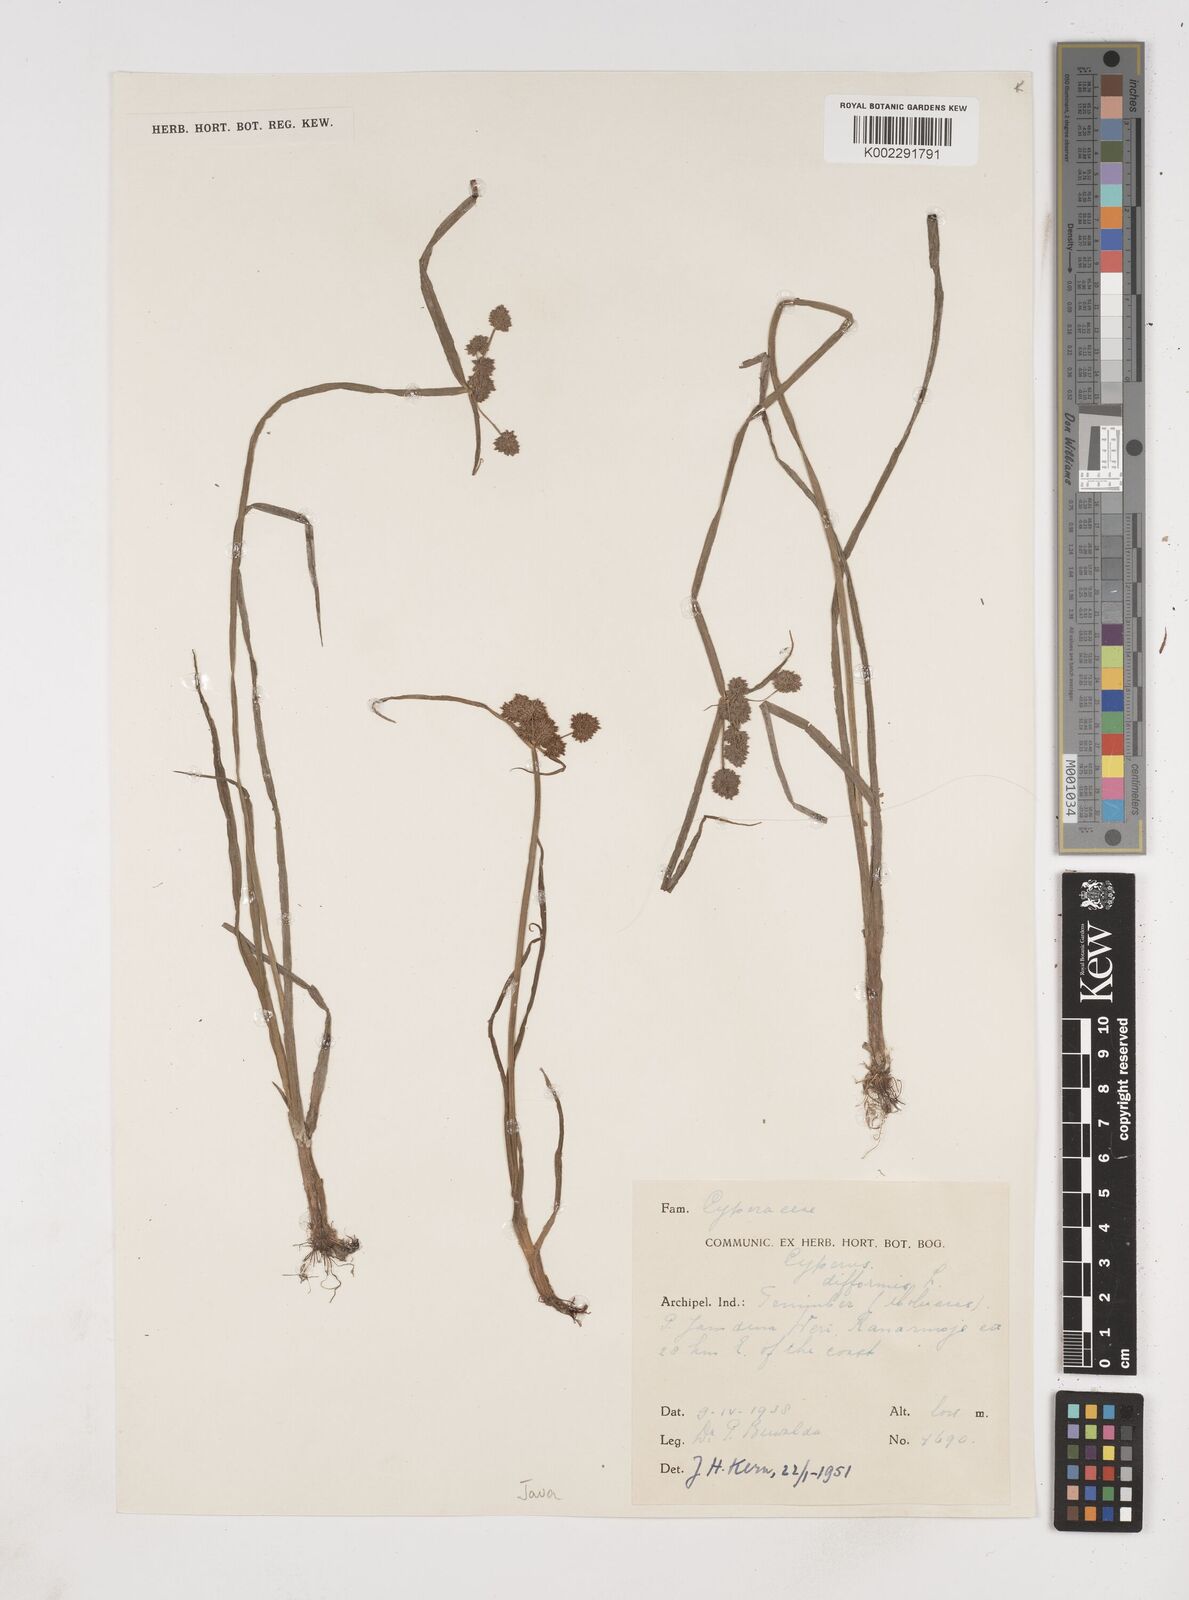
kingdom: Plantae
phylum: Tracheophyta
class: Liliopsida
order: Poales
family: Cyperaceae
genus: Cyperus
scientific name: Cyperus difformis
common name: Variable flatsedge
